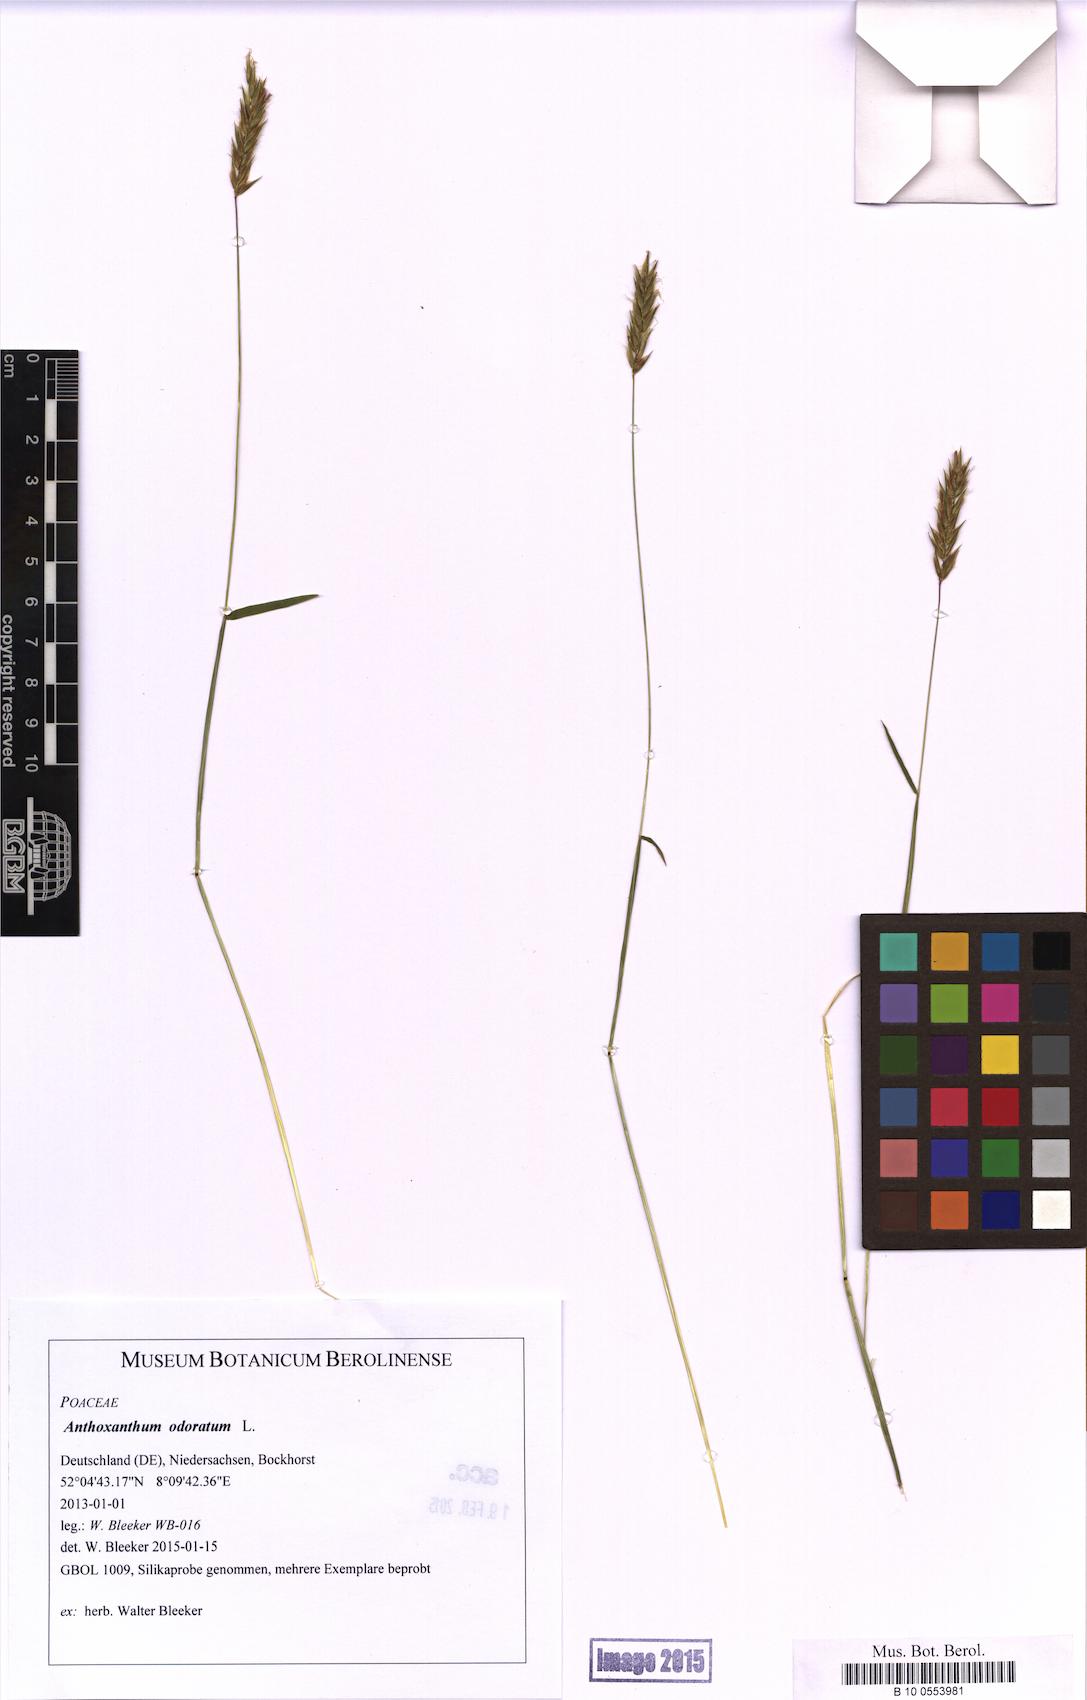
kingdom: Plantae
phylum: Tracheophyta
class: Liliopsida
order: Poales
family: Poaceae
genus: Anthoxanthum
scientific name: Anthoxanthum odoratum
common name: Sweet vernalgrass
